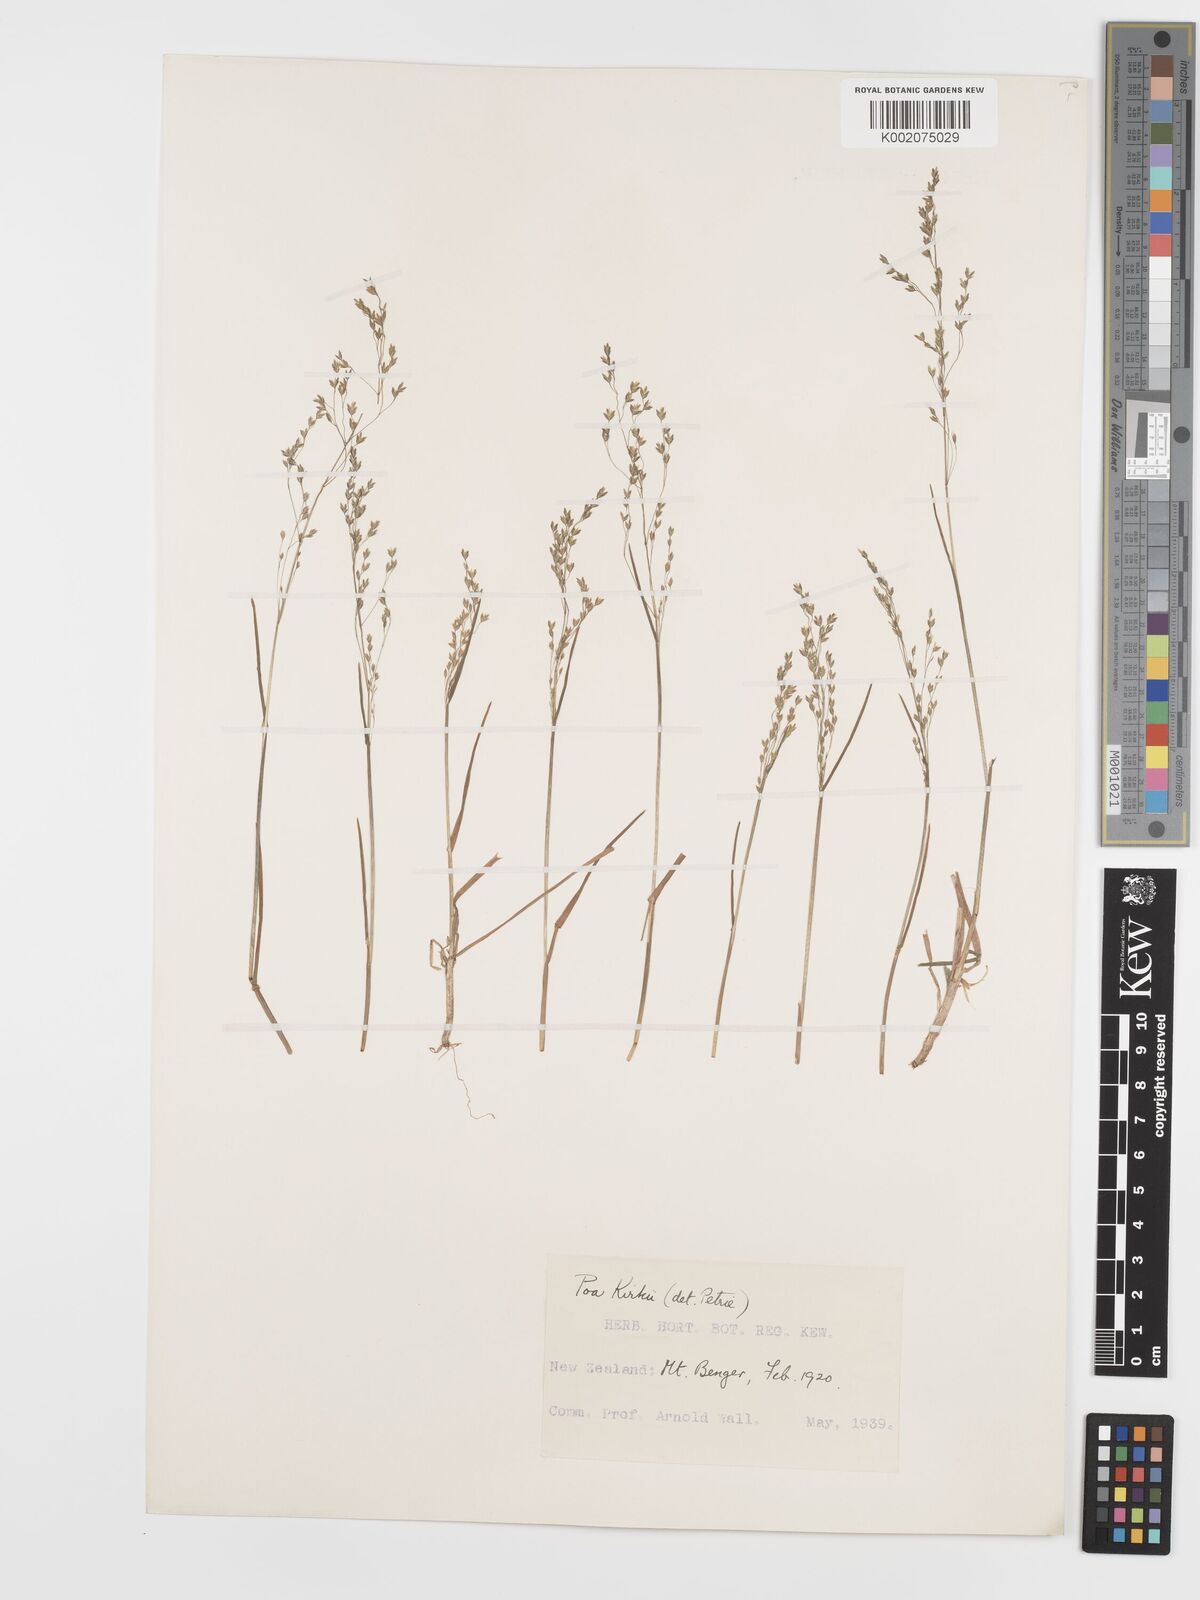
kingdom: Plantae
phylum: Tracheophyta
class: Liliopsida
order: Poales
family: Poaceae
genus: Poa
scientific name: Poa kirkii
